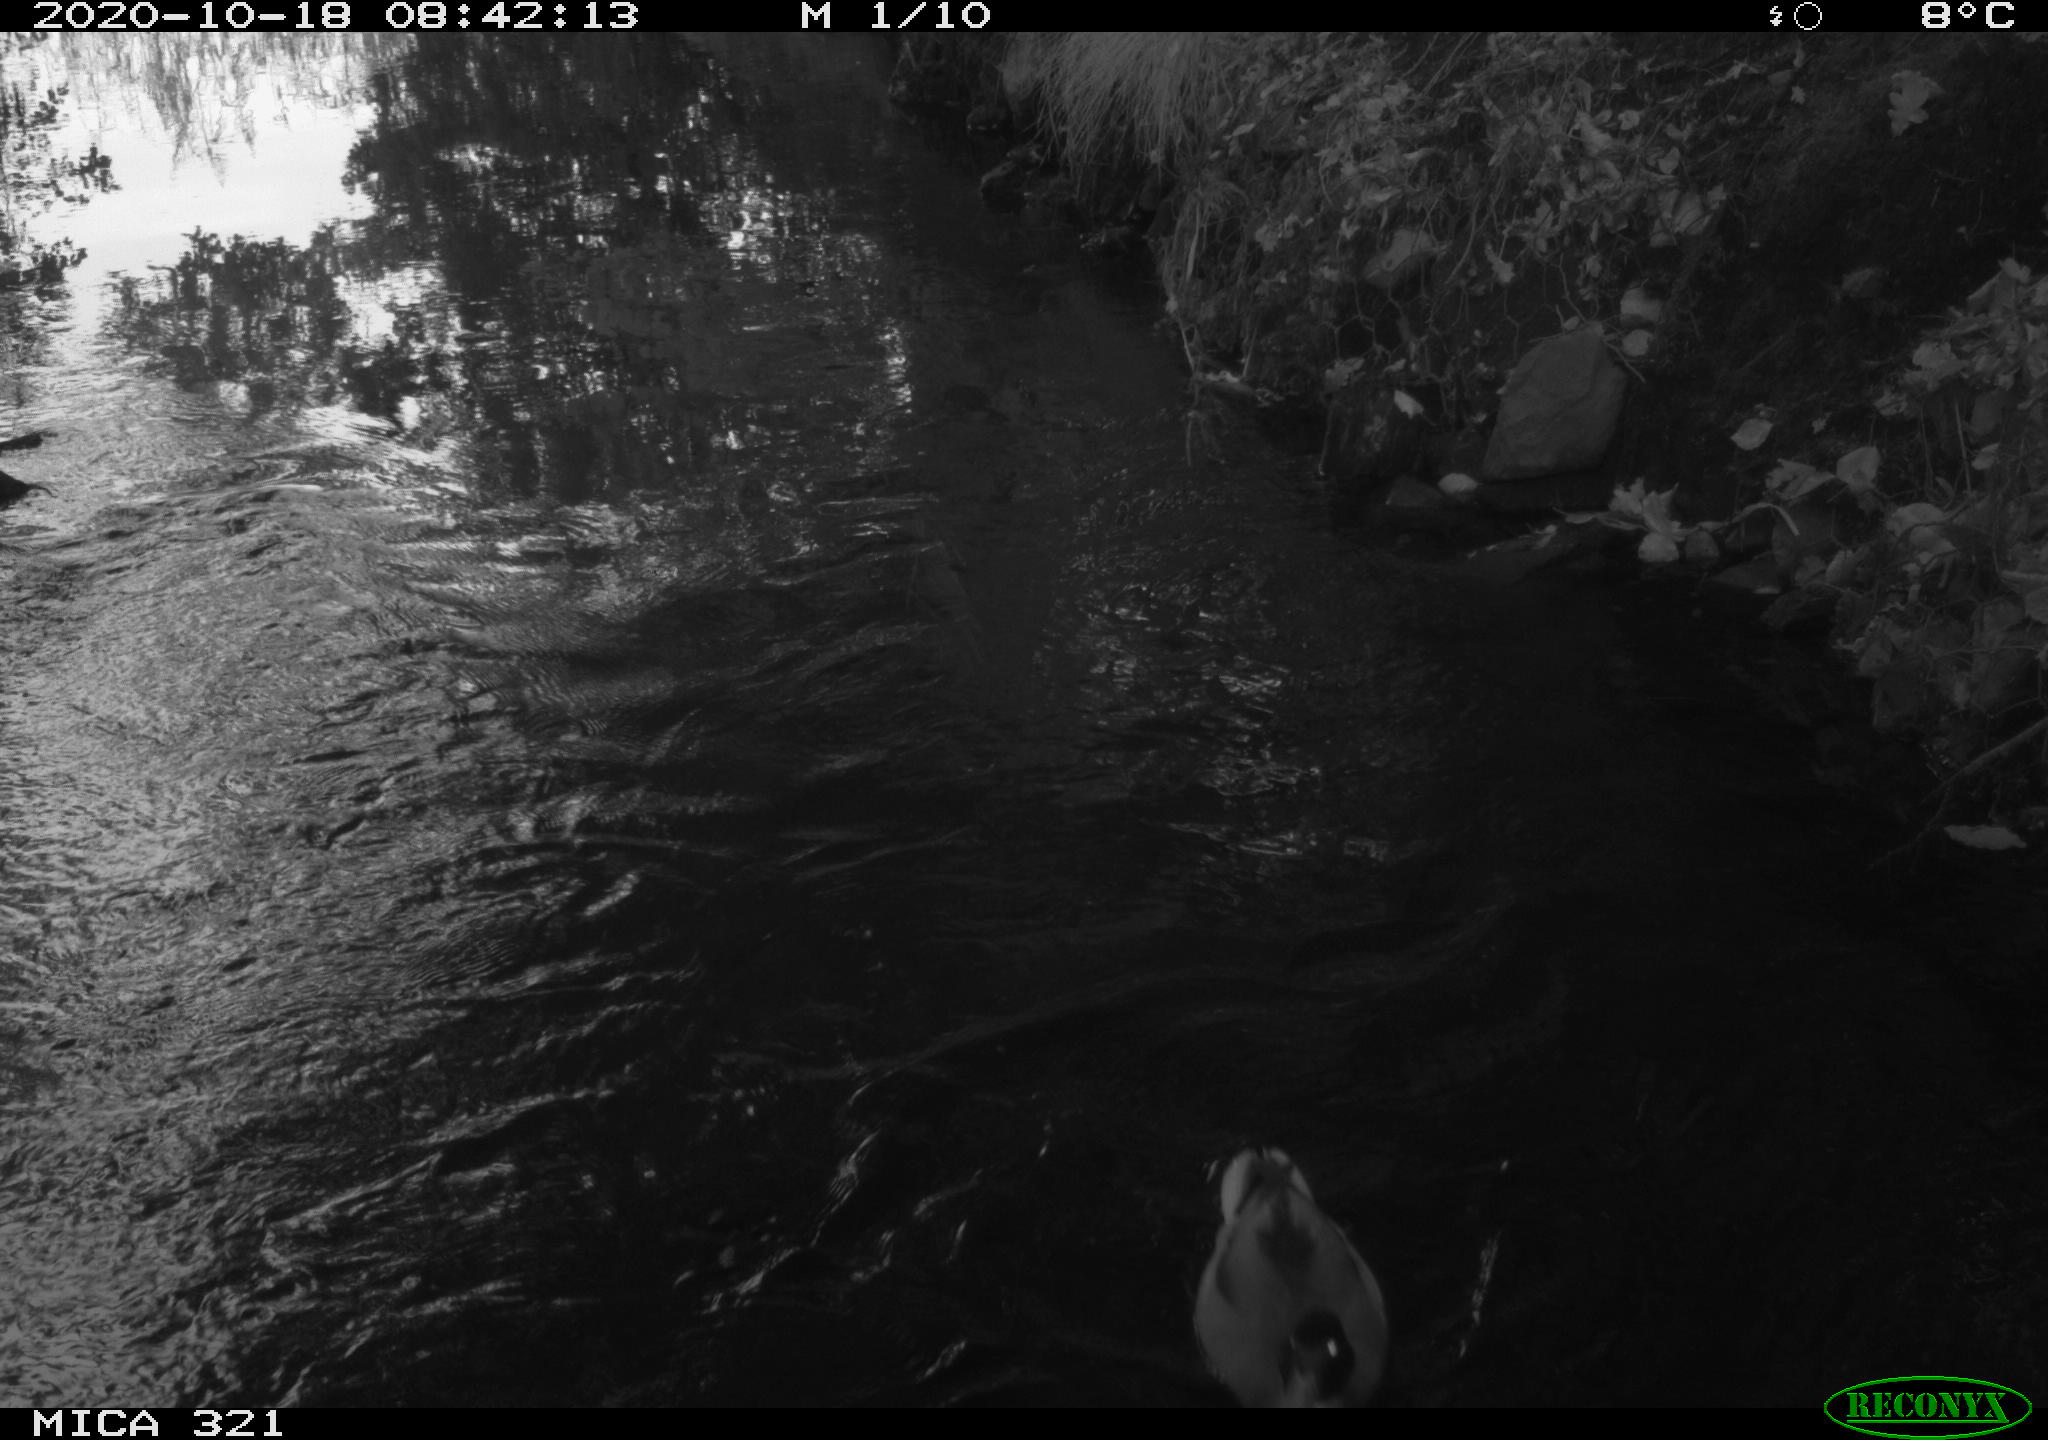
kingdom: Animalia
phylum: Chordata
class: Aves
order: Anseriformes
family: Anatidae
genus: Anas
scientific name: Anas platyrhynchos
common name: Mallard
